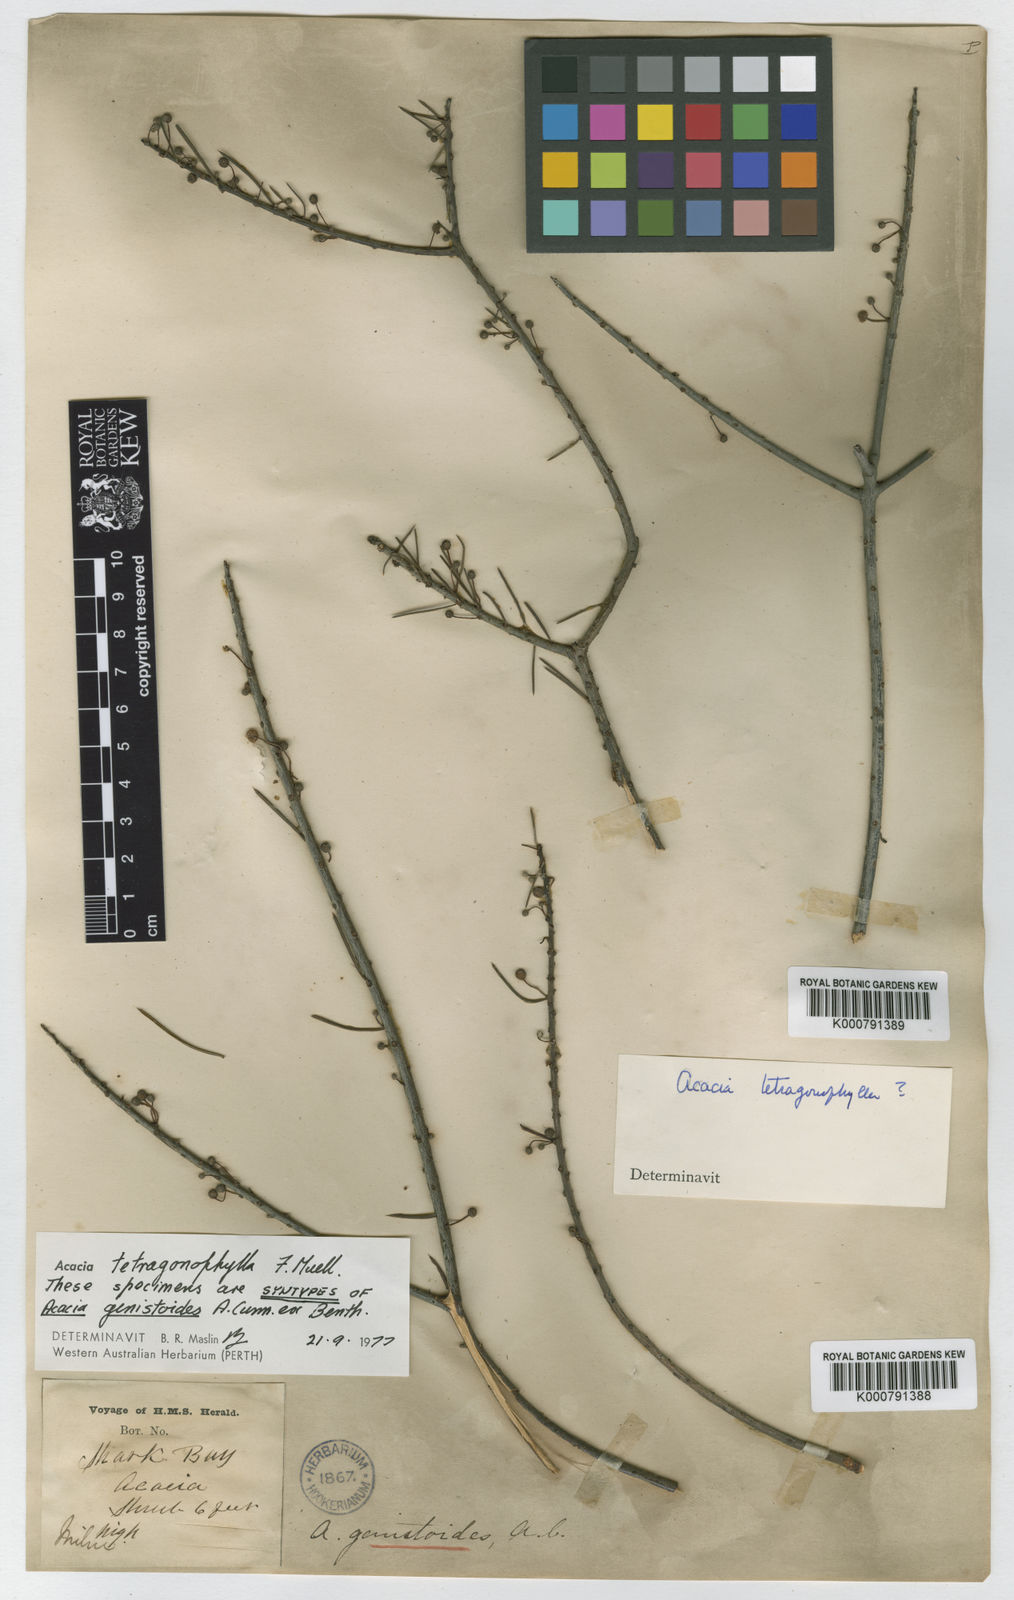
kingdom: Plantae
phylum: Tracheophyta
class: Magnoliopsida
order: Fabales
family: Fabaceae
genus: Acacia
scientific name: Acacia tetragonophylla
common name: Dead finish
